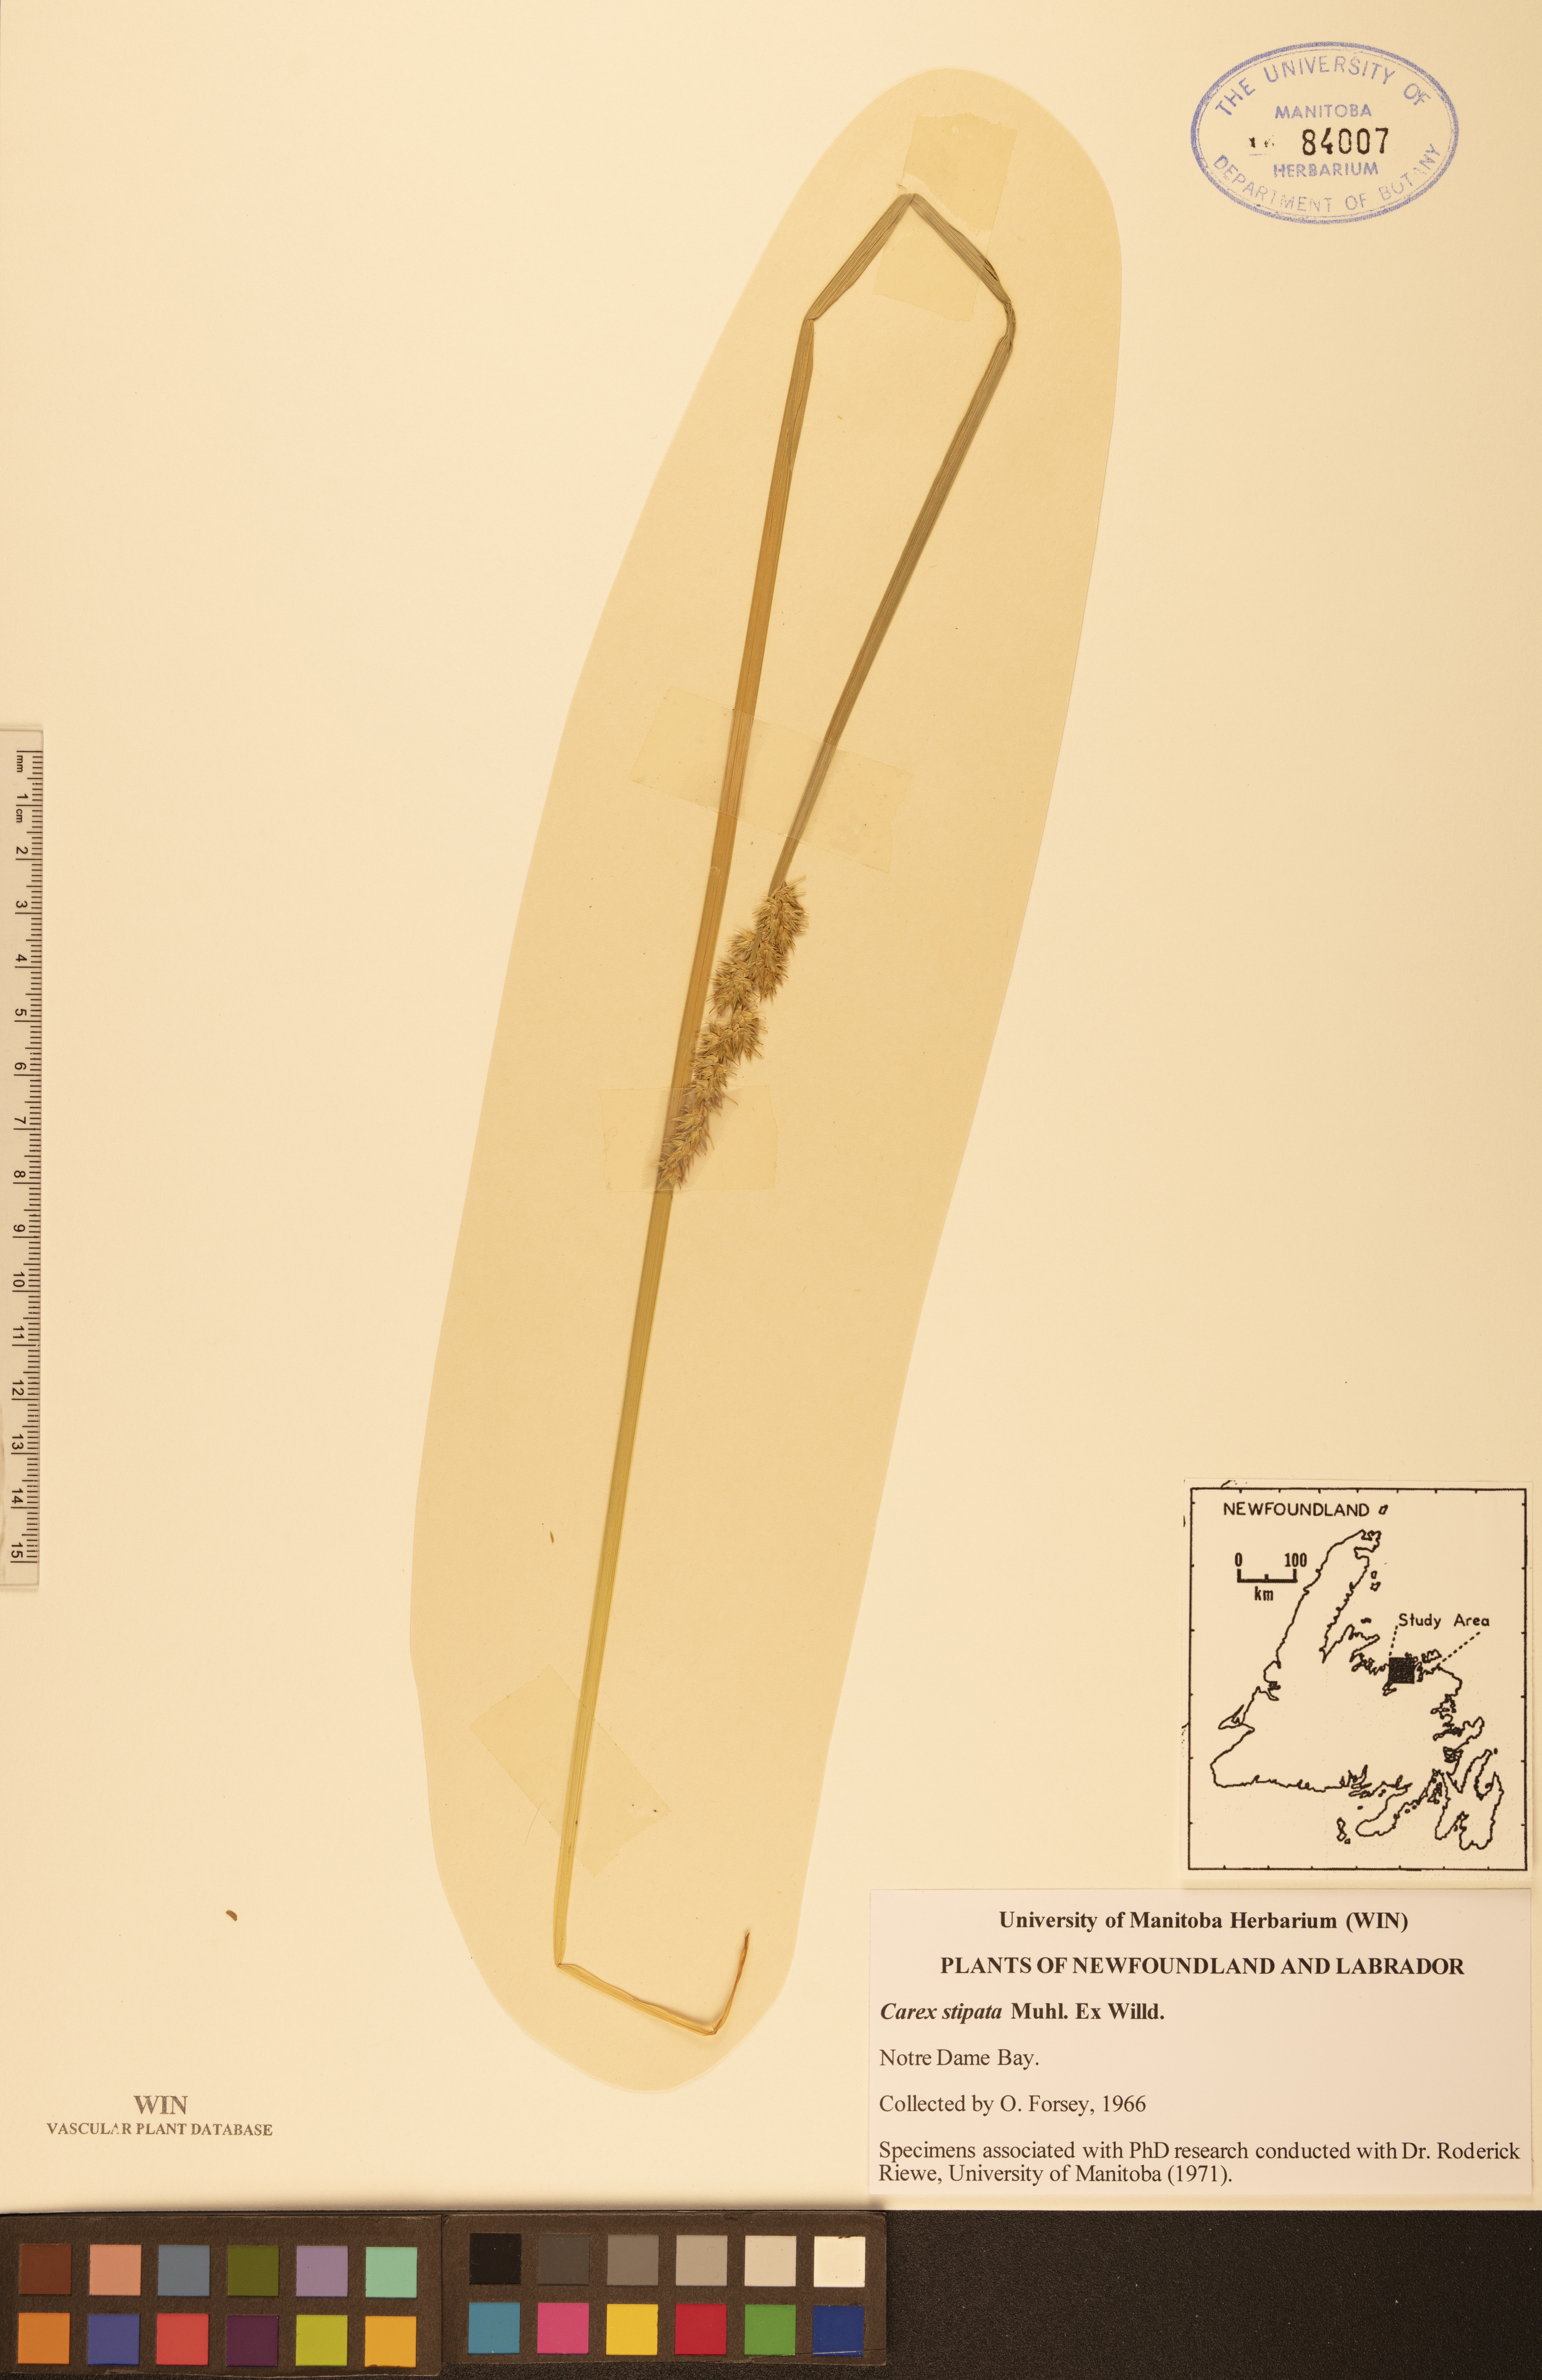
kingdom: Plantae
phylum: Tracheophyta
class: Liliopsida
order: Poales
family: Cyperaceae
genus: Carex
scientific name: Carex stipata
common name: Awl-fruited sedge
